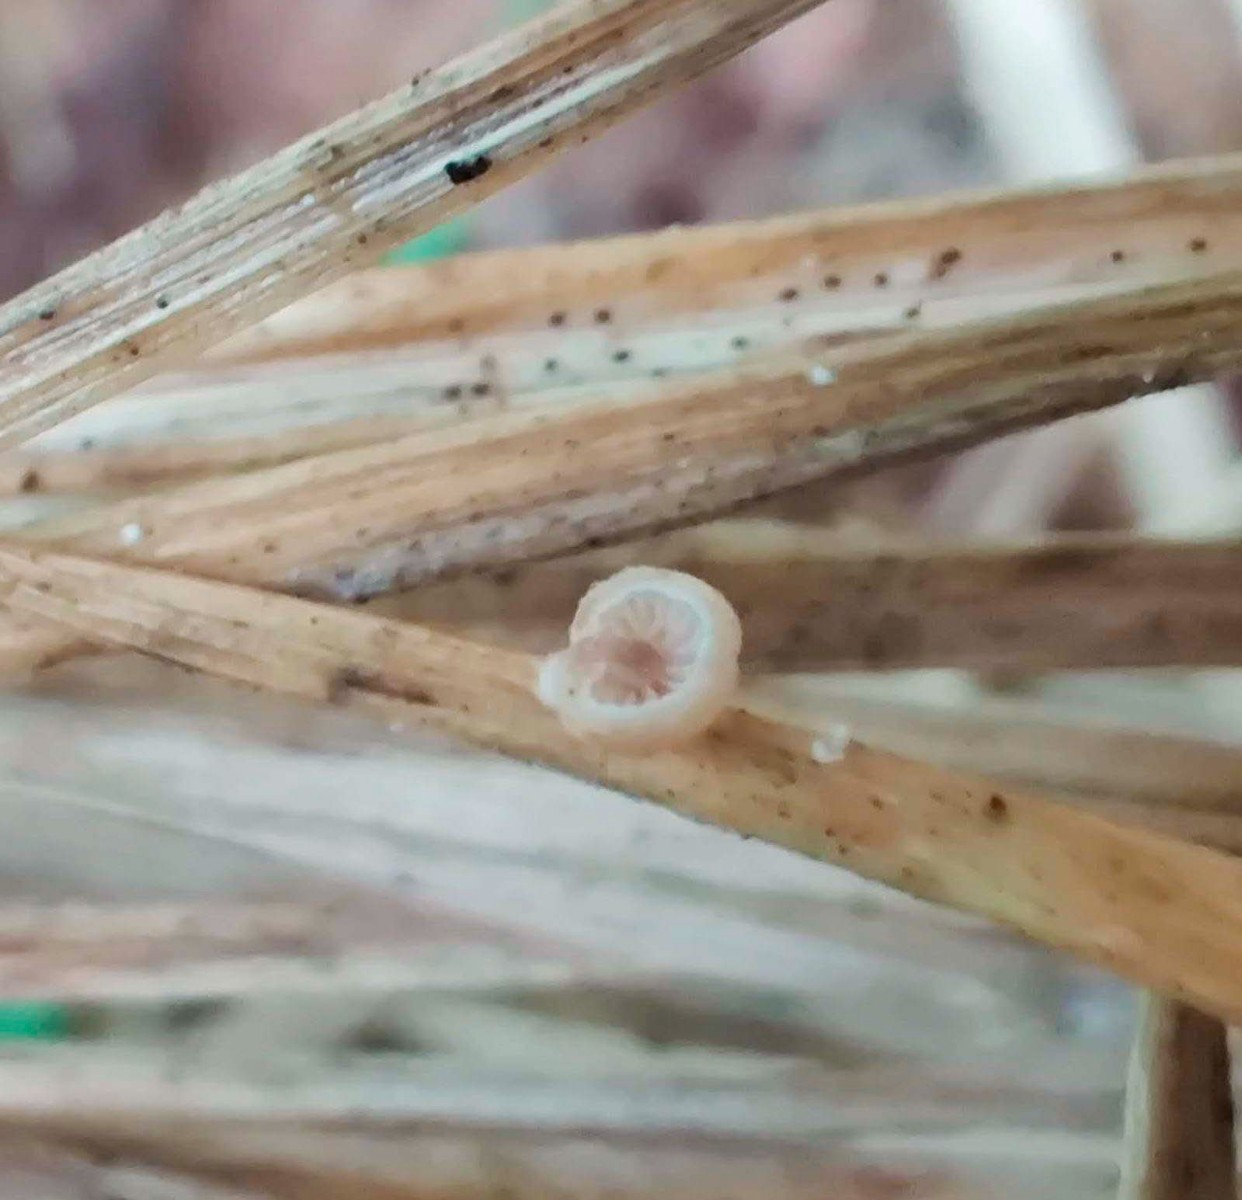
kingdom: Fungi
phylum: Basidiomycota
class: Agaricomycetes
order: Agaricales
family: Strophariaceae
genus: Deconica
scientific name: Deconica phillipsii
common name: almindelig stråhat
